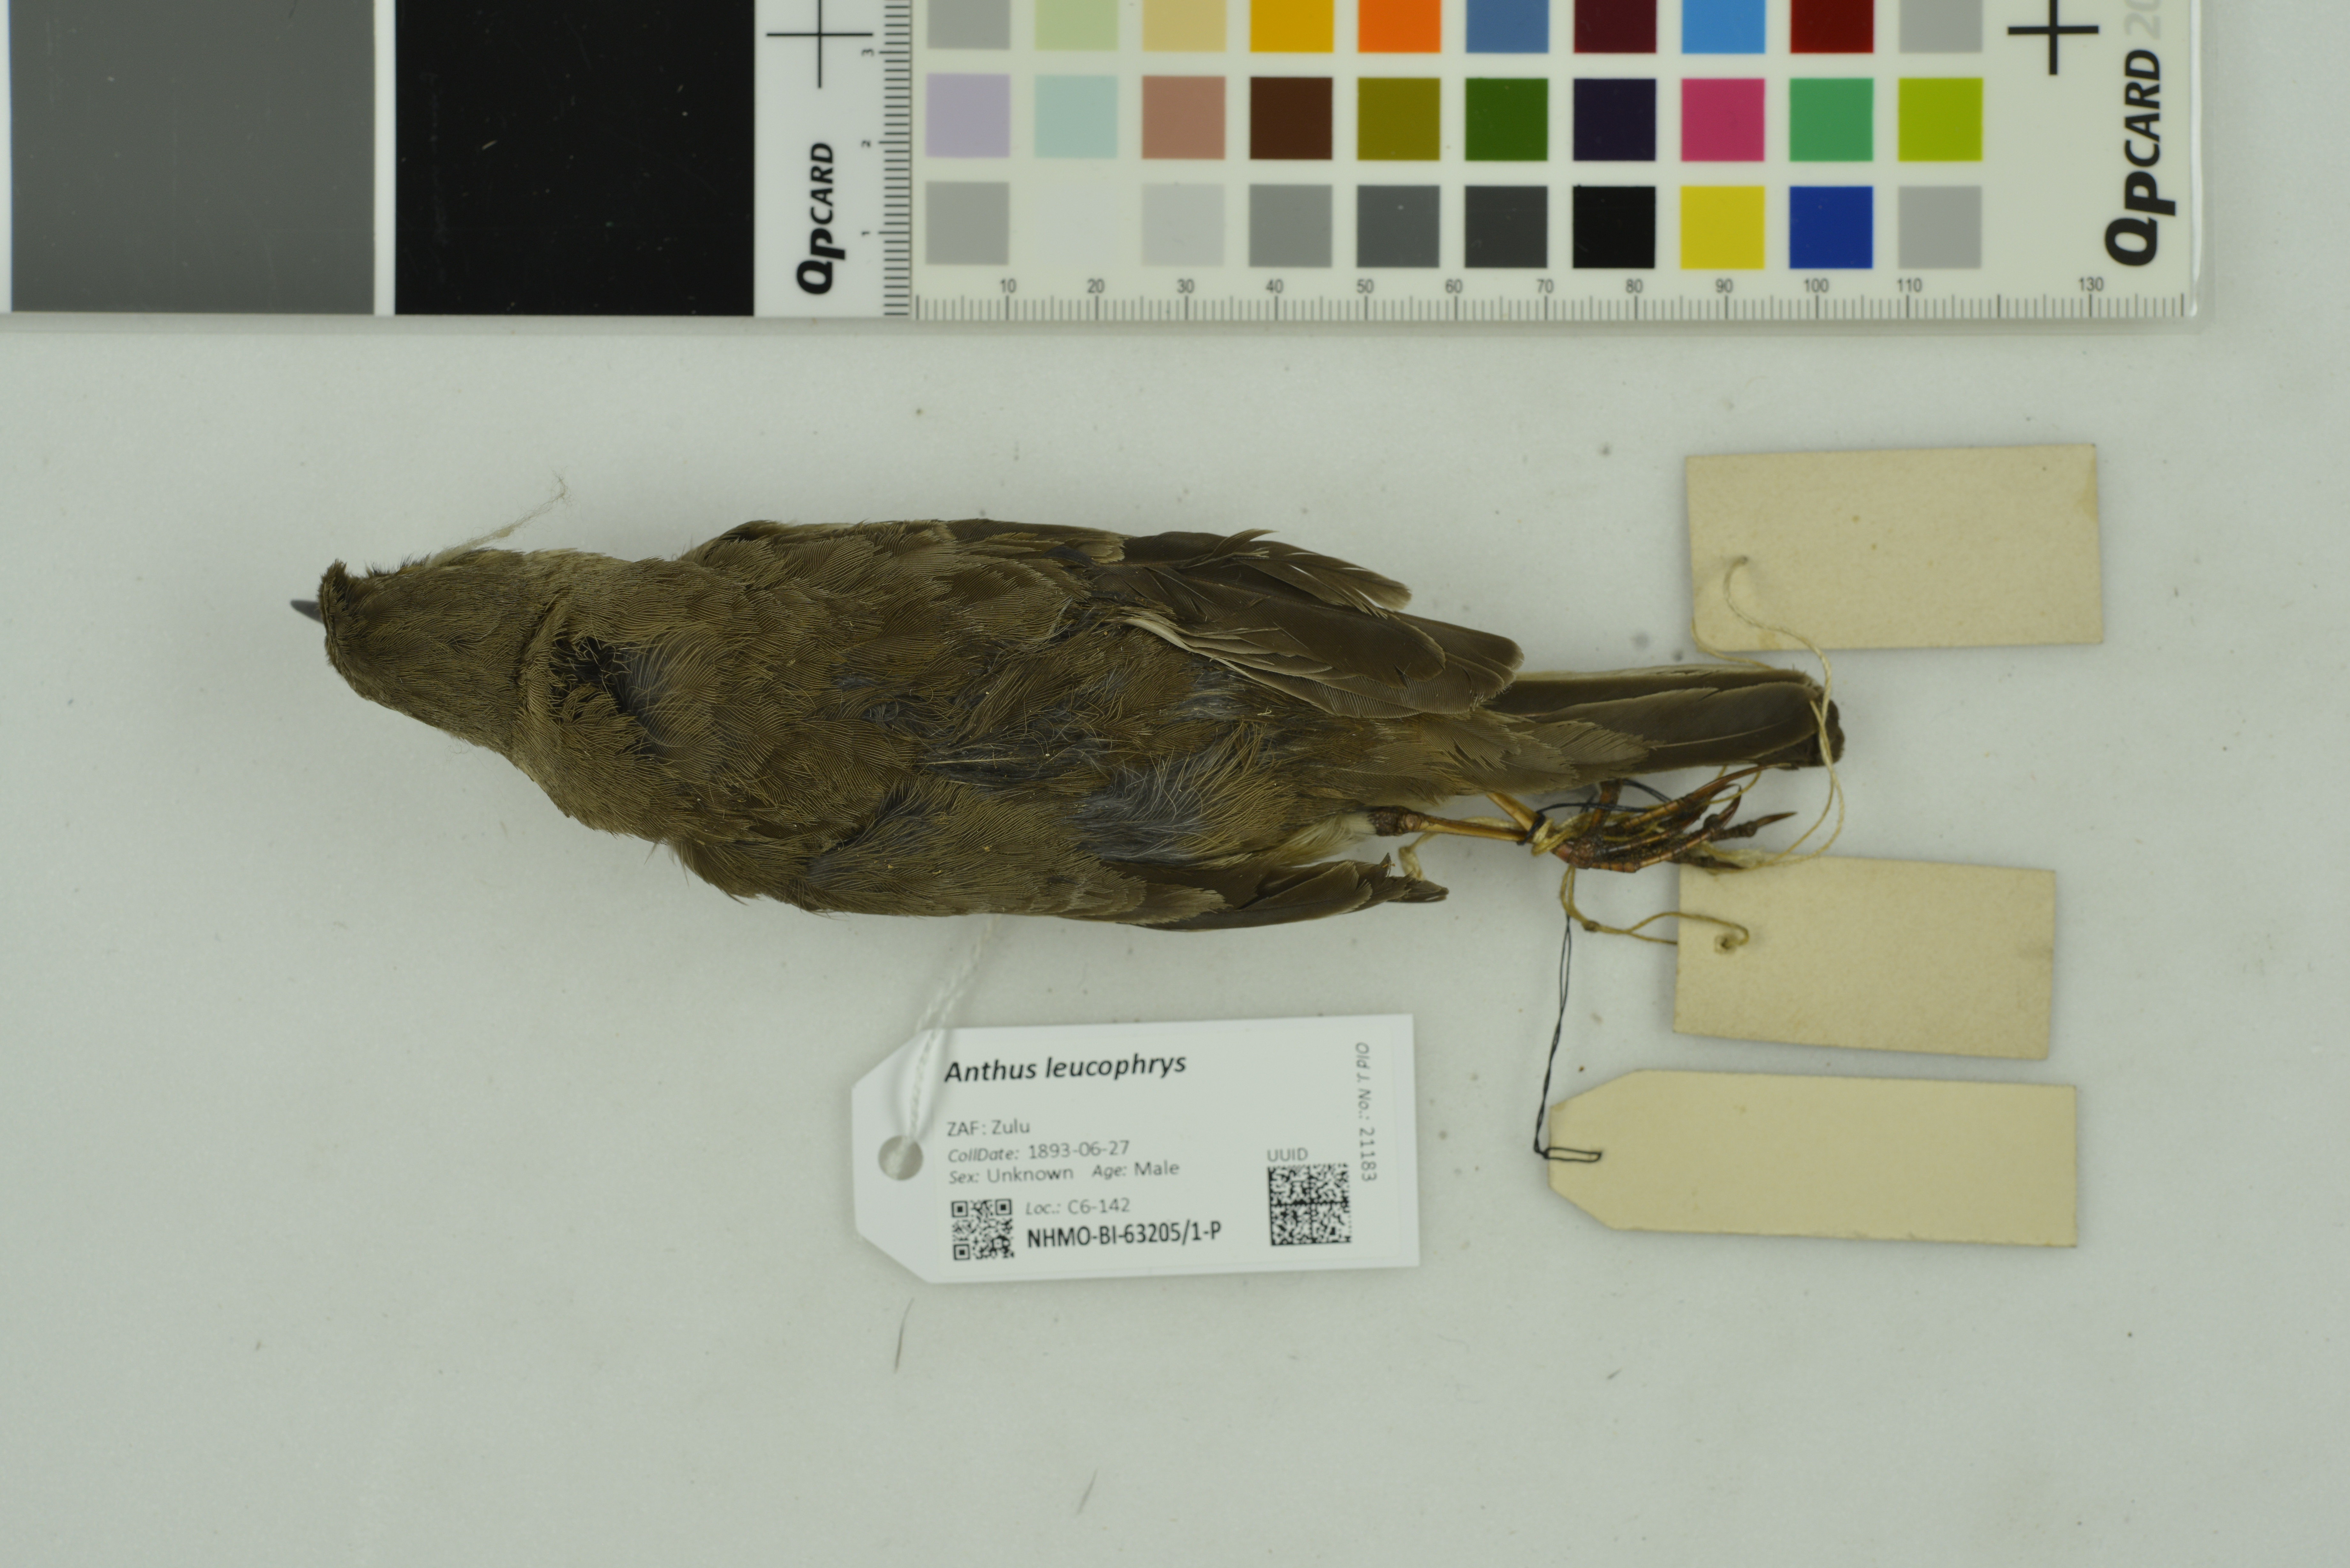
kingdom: Animalia
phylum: Chordata
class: Aves
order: Passeriformes
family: Motacillidae
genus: Anthus
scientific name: Anthus leucophrys
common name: Plain-backed pipit
